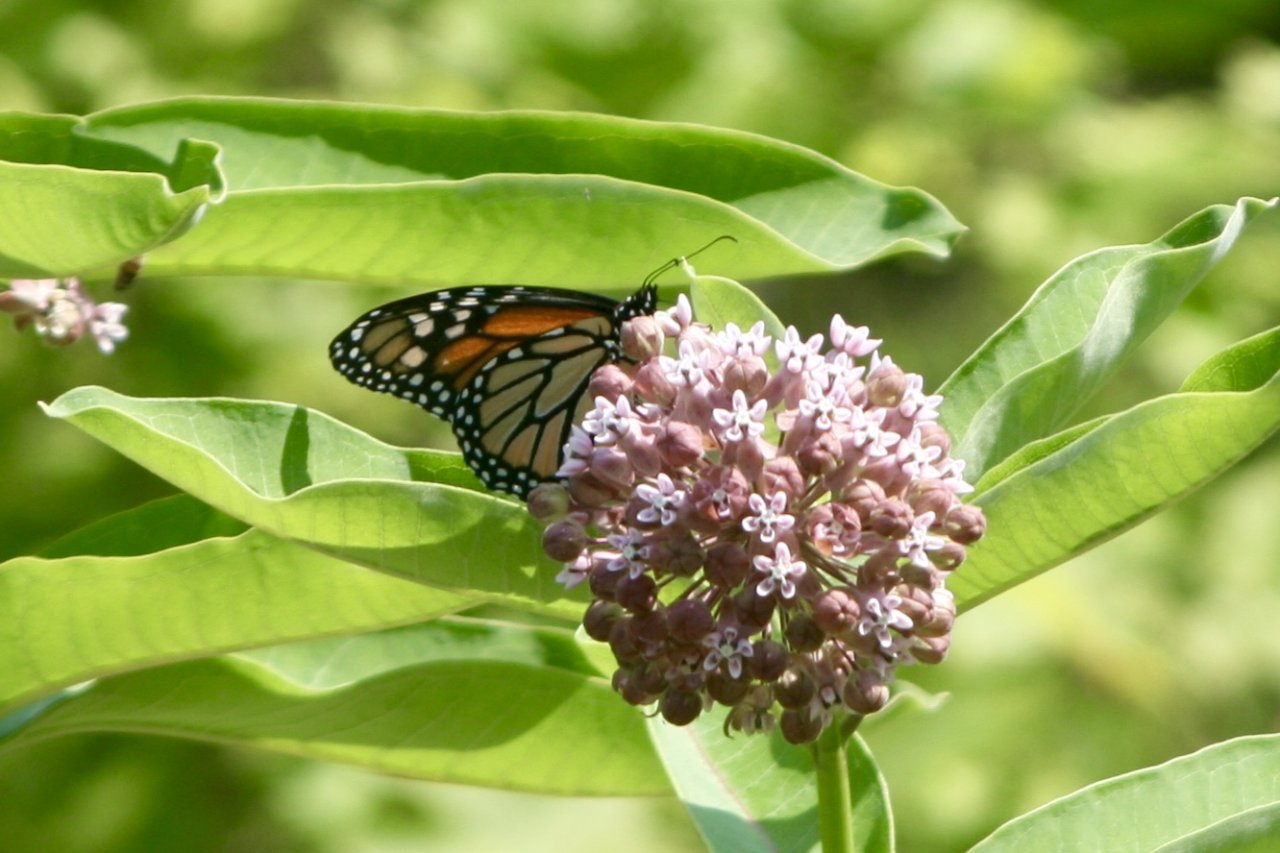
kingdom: Animalia
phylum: Arthropoda
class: Insecta
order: Lepidoptera
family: Nymphalidae
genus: Danaus
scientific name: Danaus plexippus
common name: Monarch
